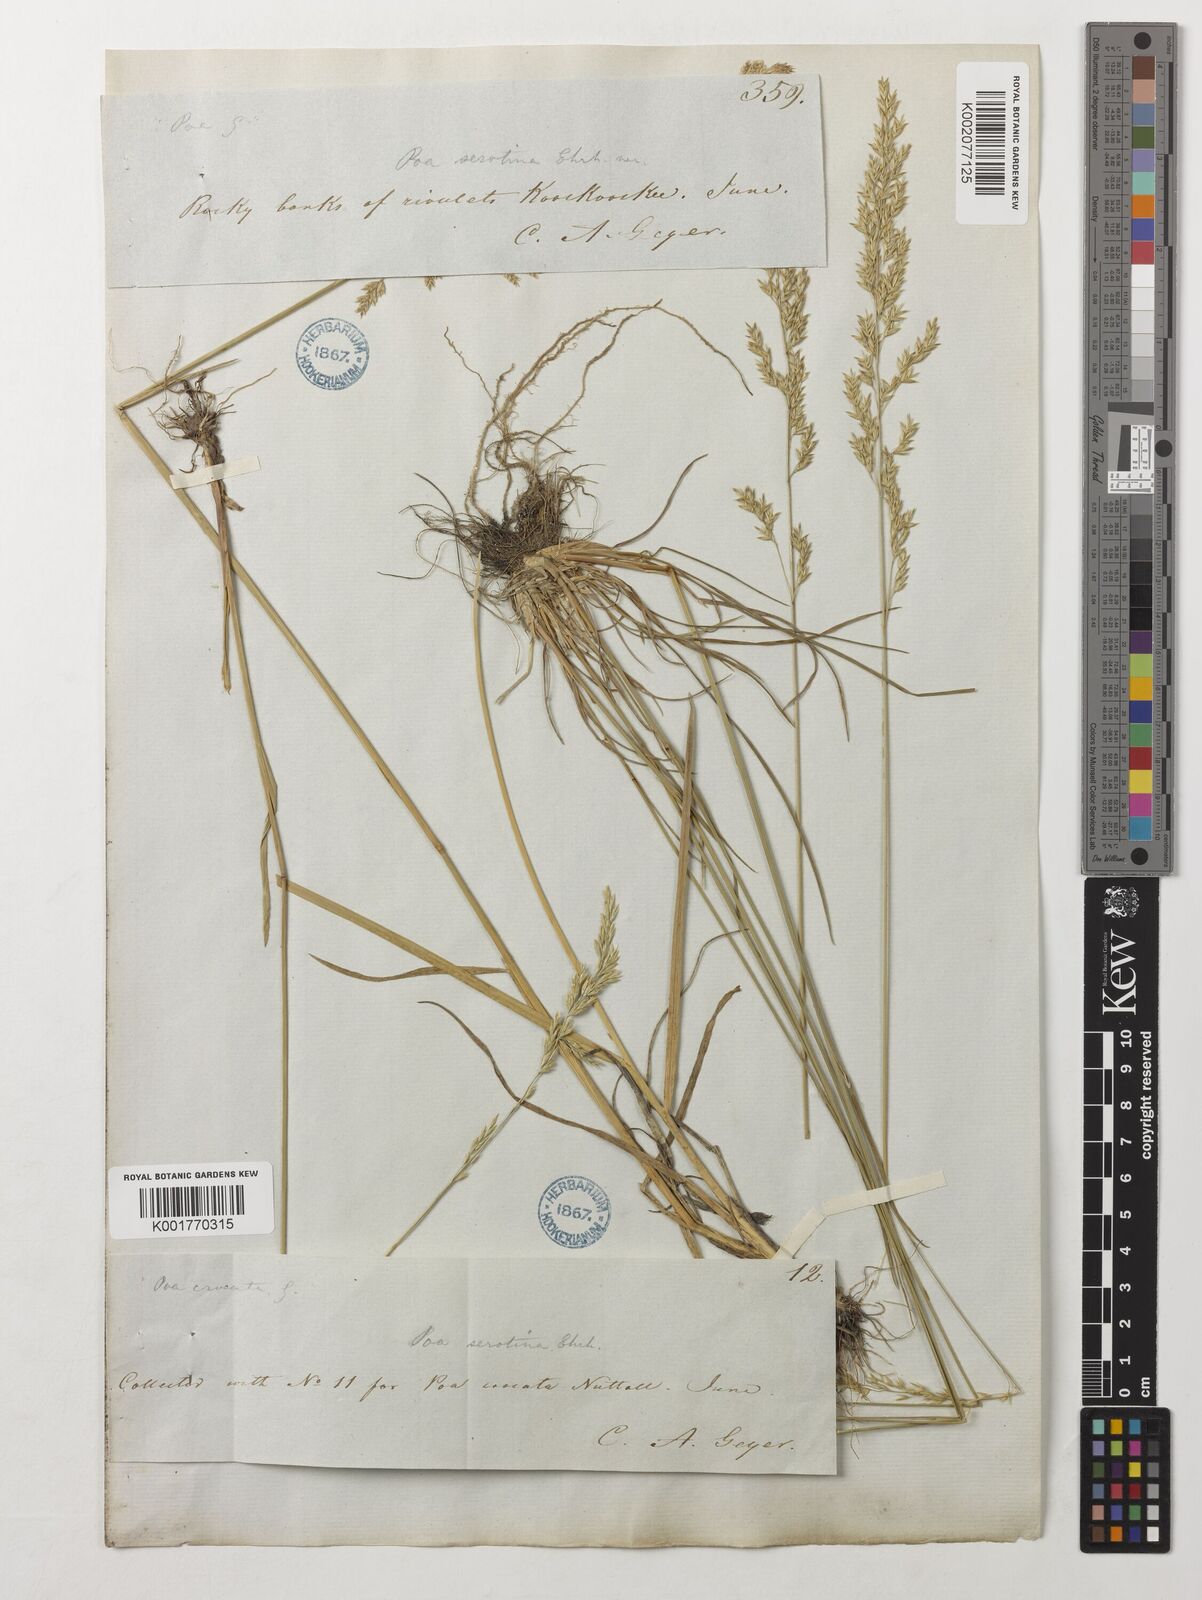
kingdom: Plantae
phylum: Tracheophyta
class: Liliopsida
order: Poales
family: Poaceae
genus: Poa
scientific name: Poa palustris
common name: Swamp meadow-grass
